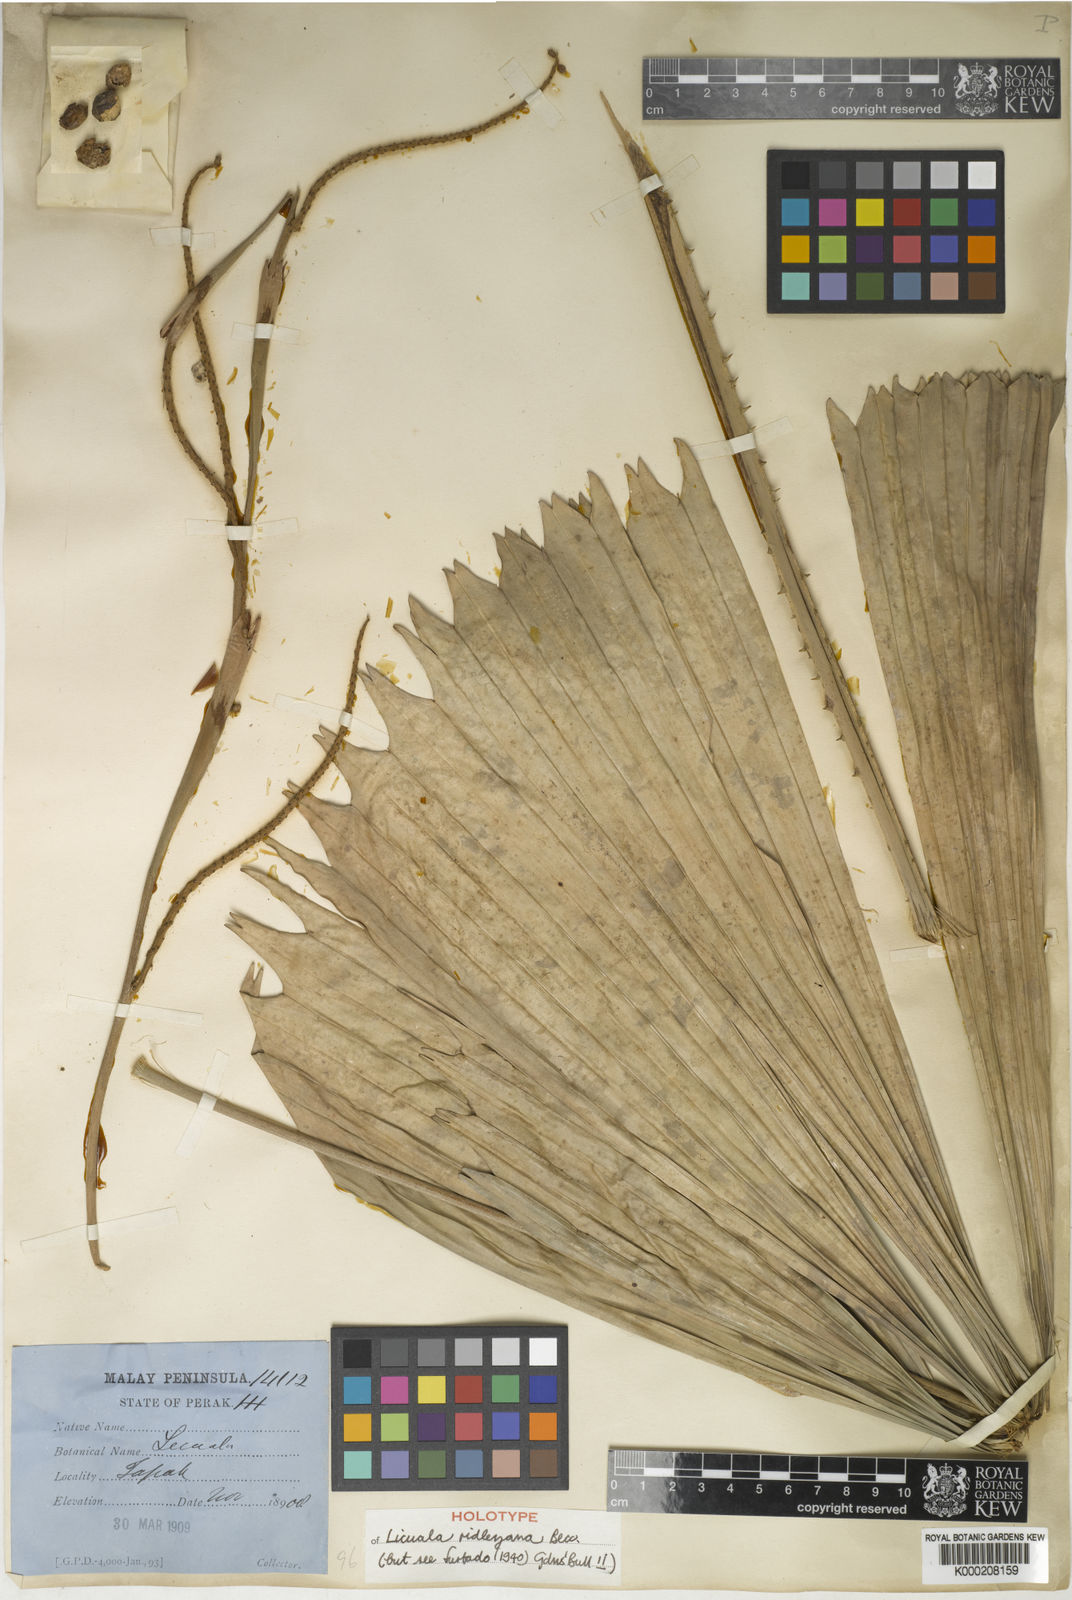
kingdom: Plantae
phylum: Tracheophyta
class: Liliopsida
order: Arecales
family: Arecaceae
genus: Licuala
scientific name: Licuala ridleyana
